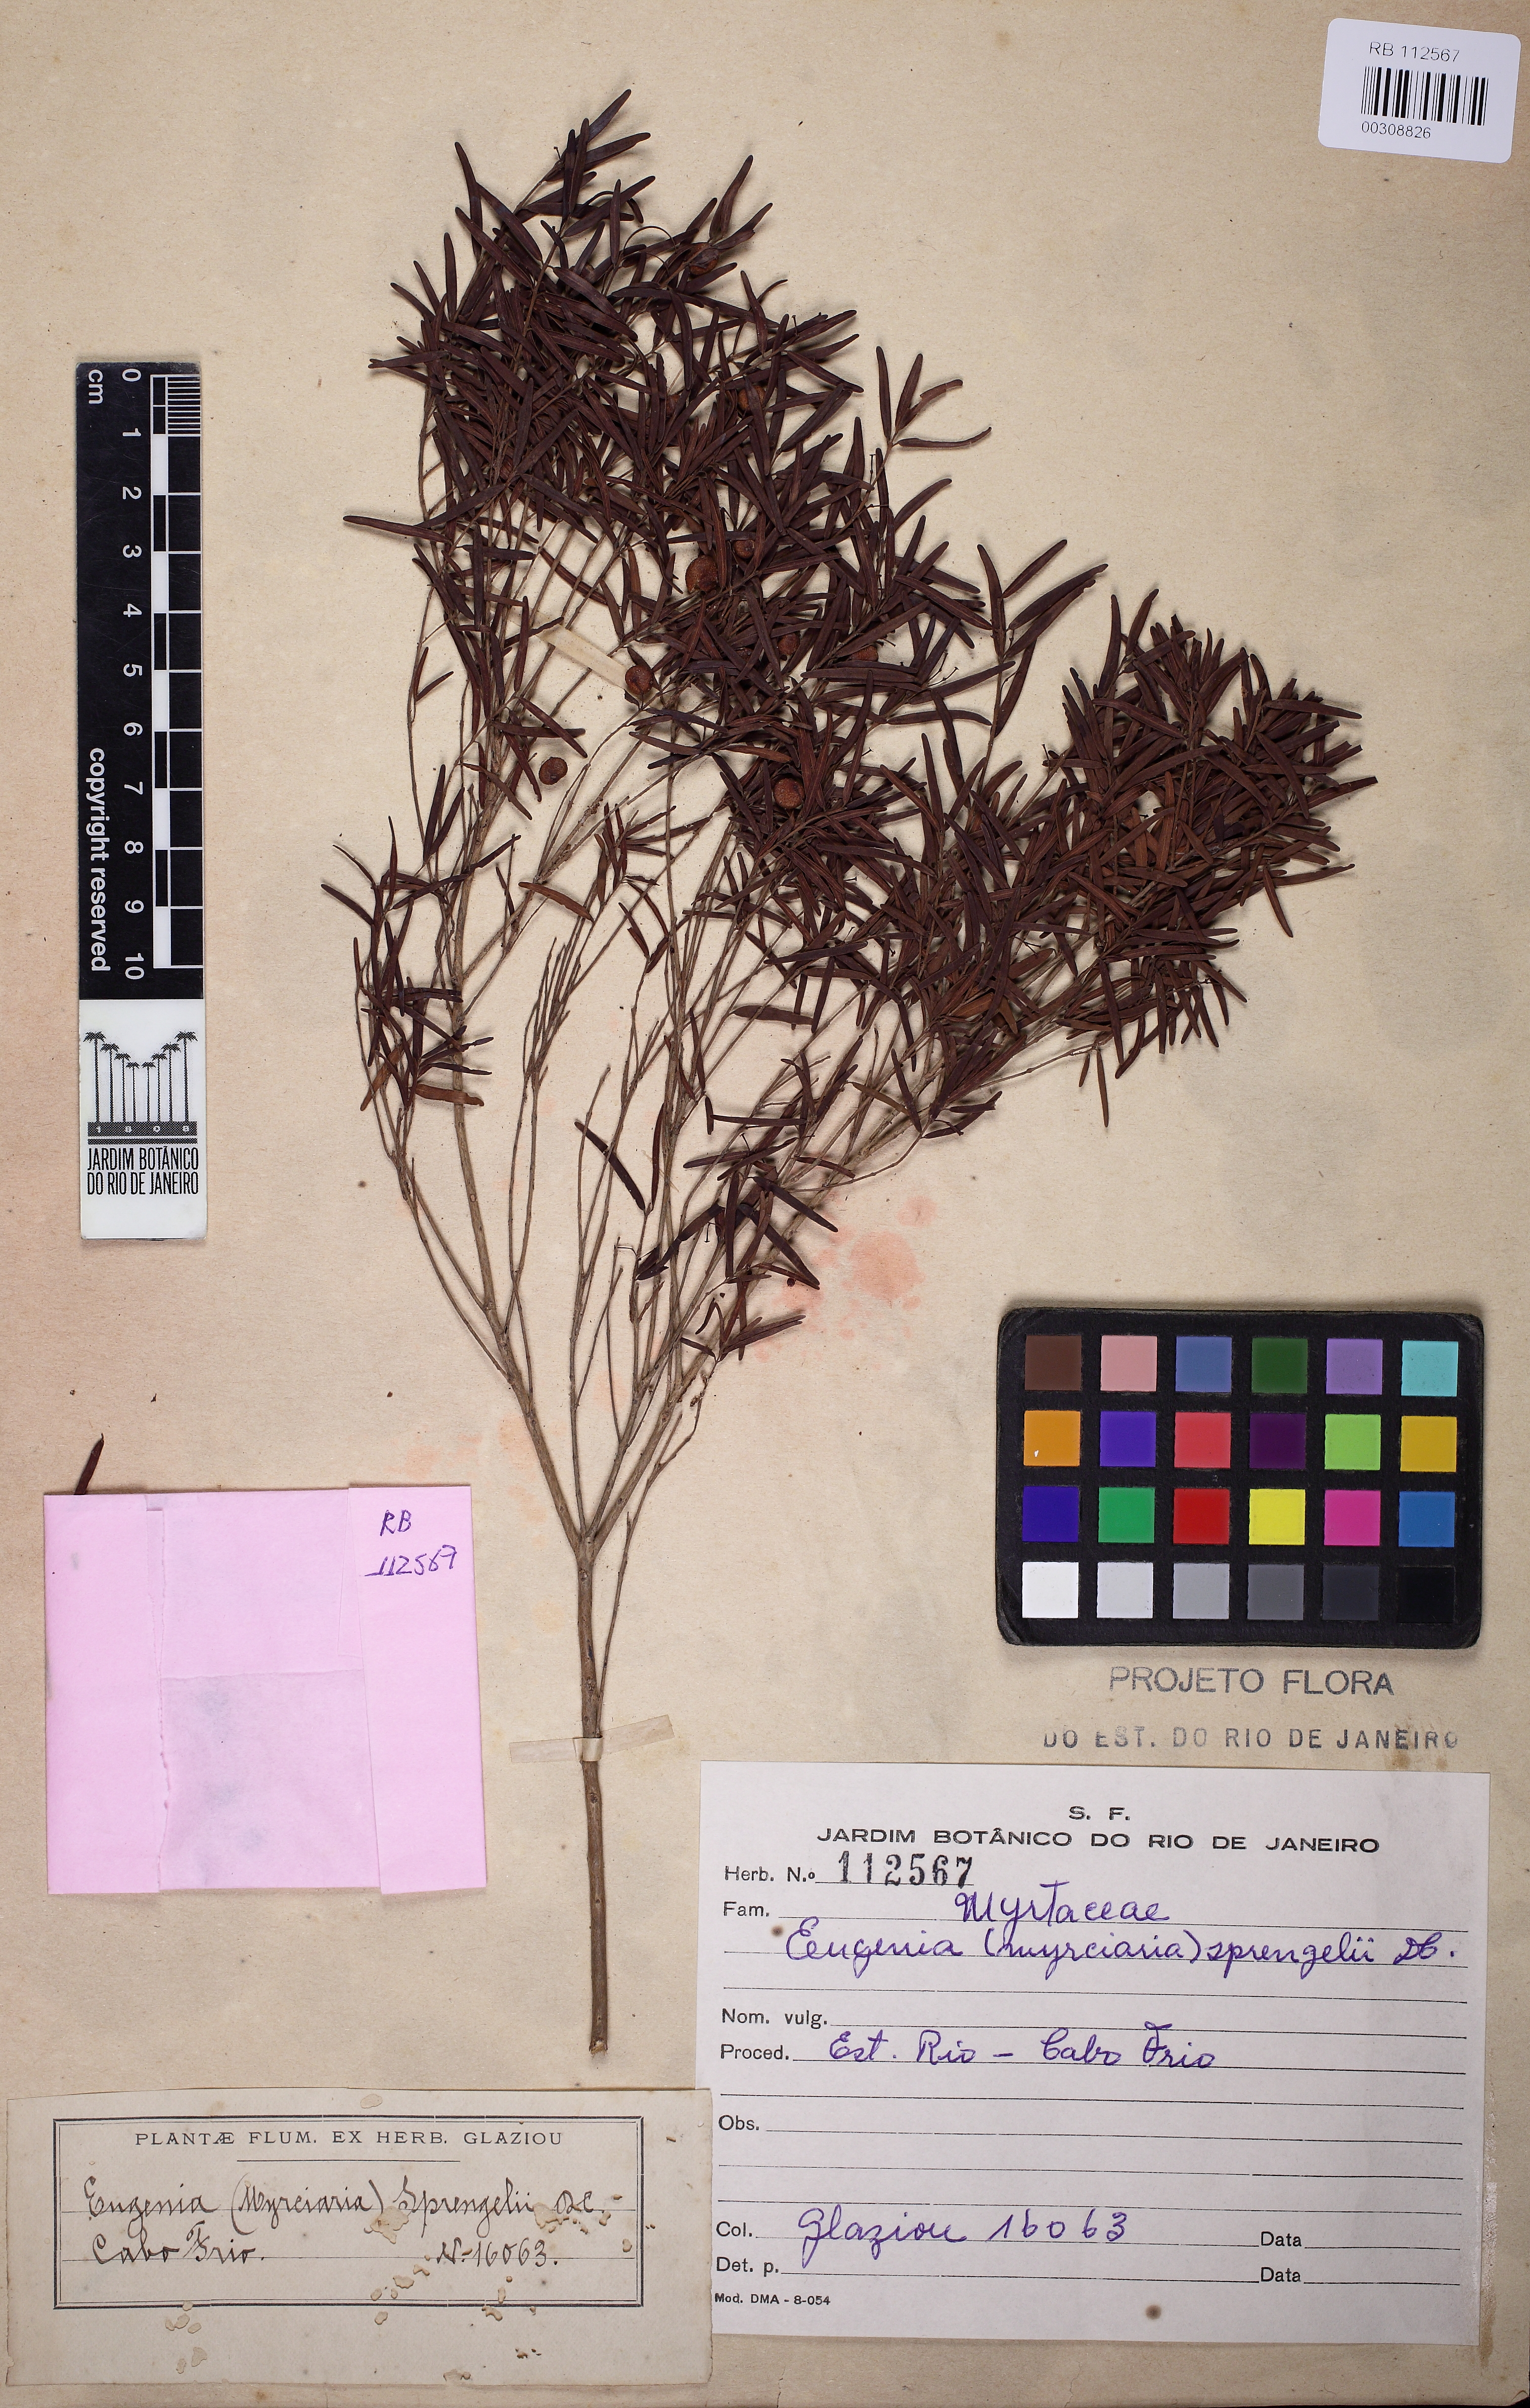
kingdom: Plantae
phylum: Tracheophyta
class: Magnoliopsida
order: Myrtales
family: Myrtaceae
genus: Eugenia
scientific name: Eugenia sprengelii
